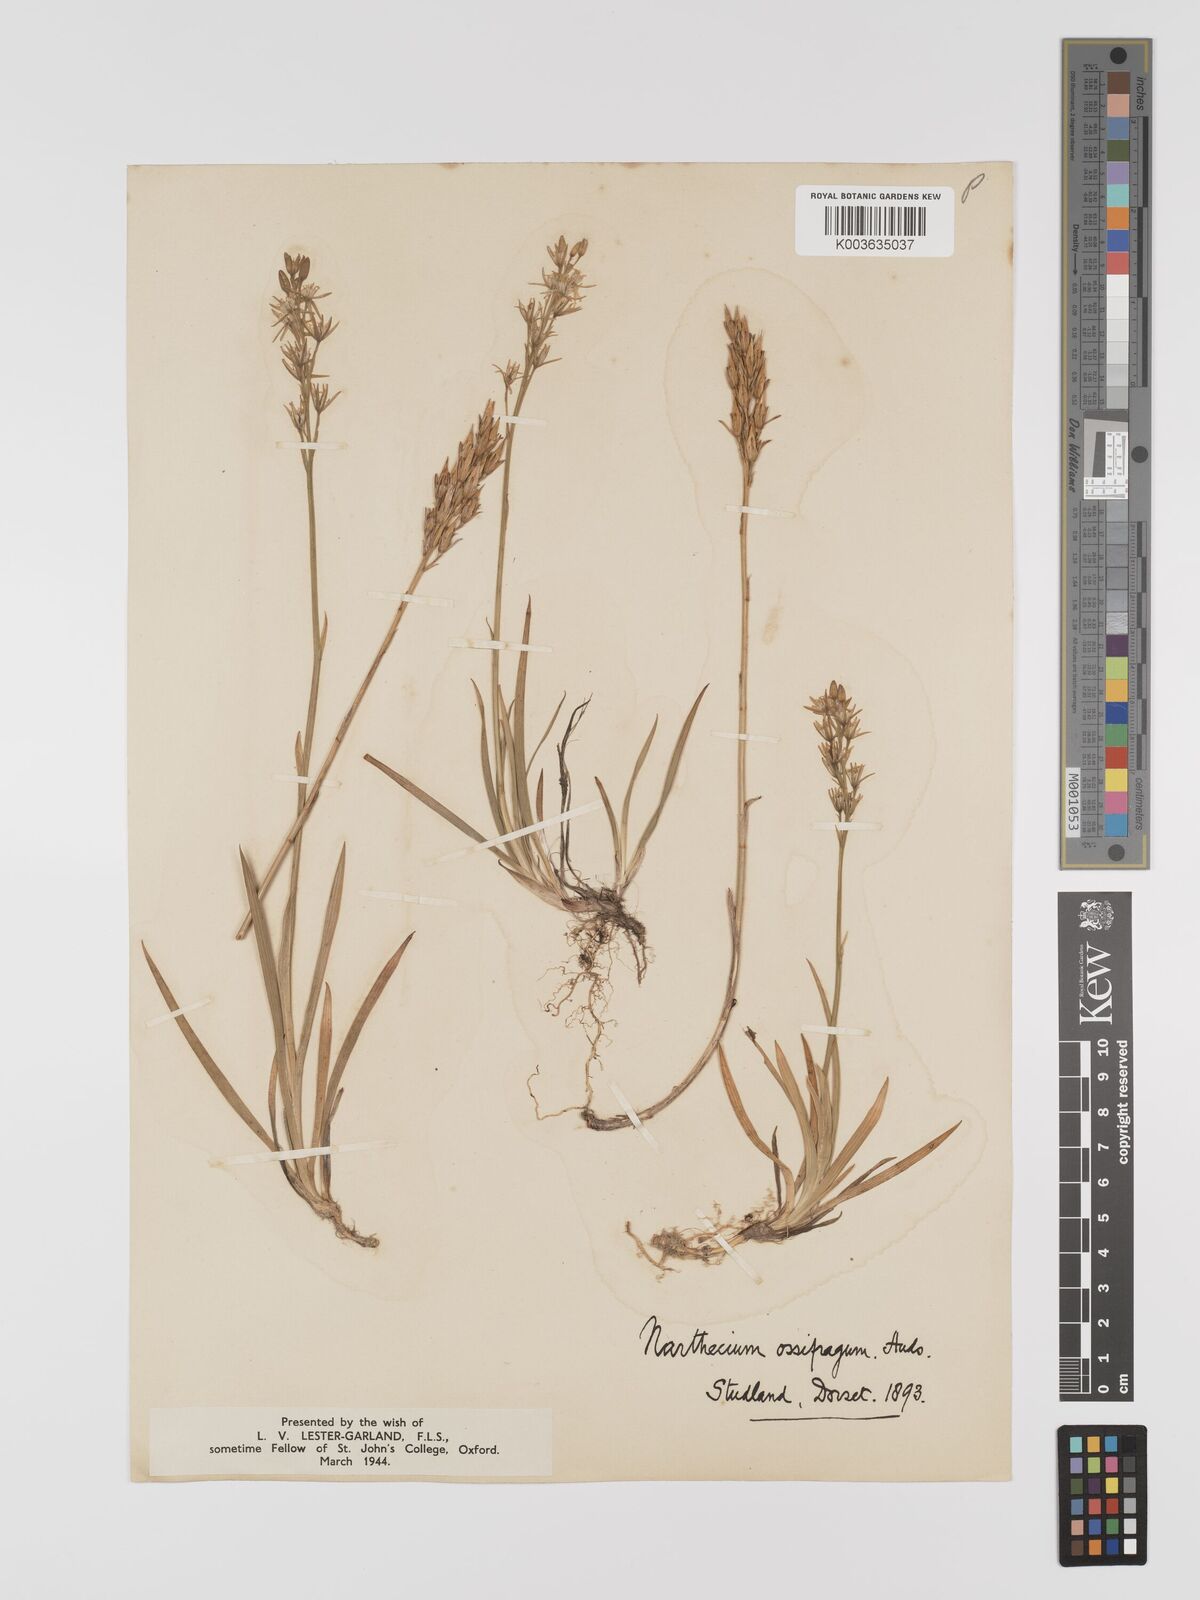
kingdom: Plantae
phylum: Tracheophyta
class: Liliopsida
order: Dioscoreales
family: Nartheciaceae
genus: Narthecium
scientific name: Narthecium
